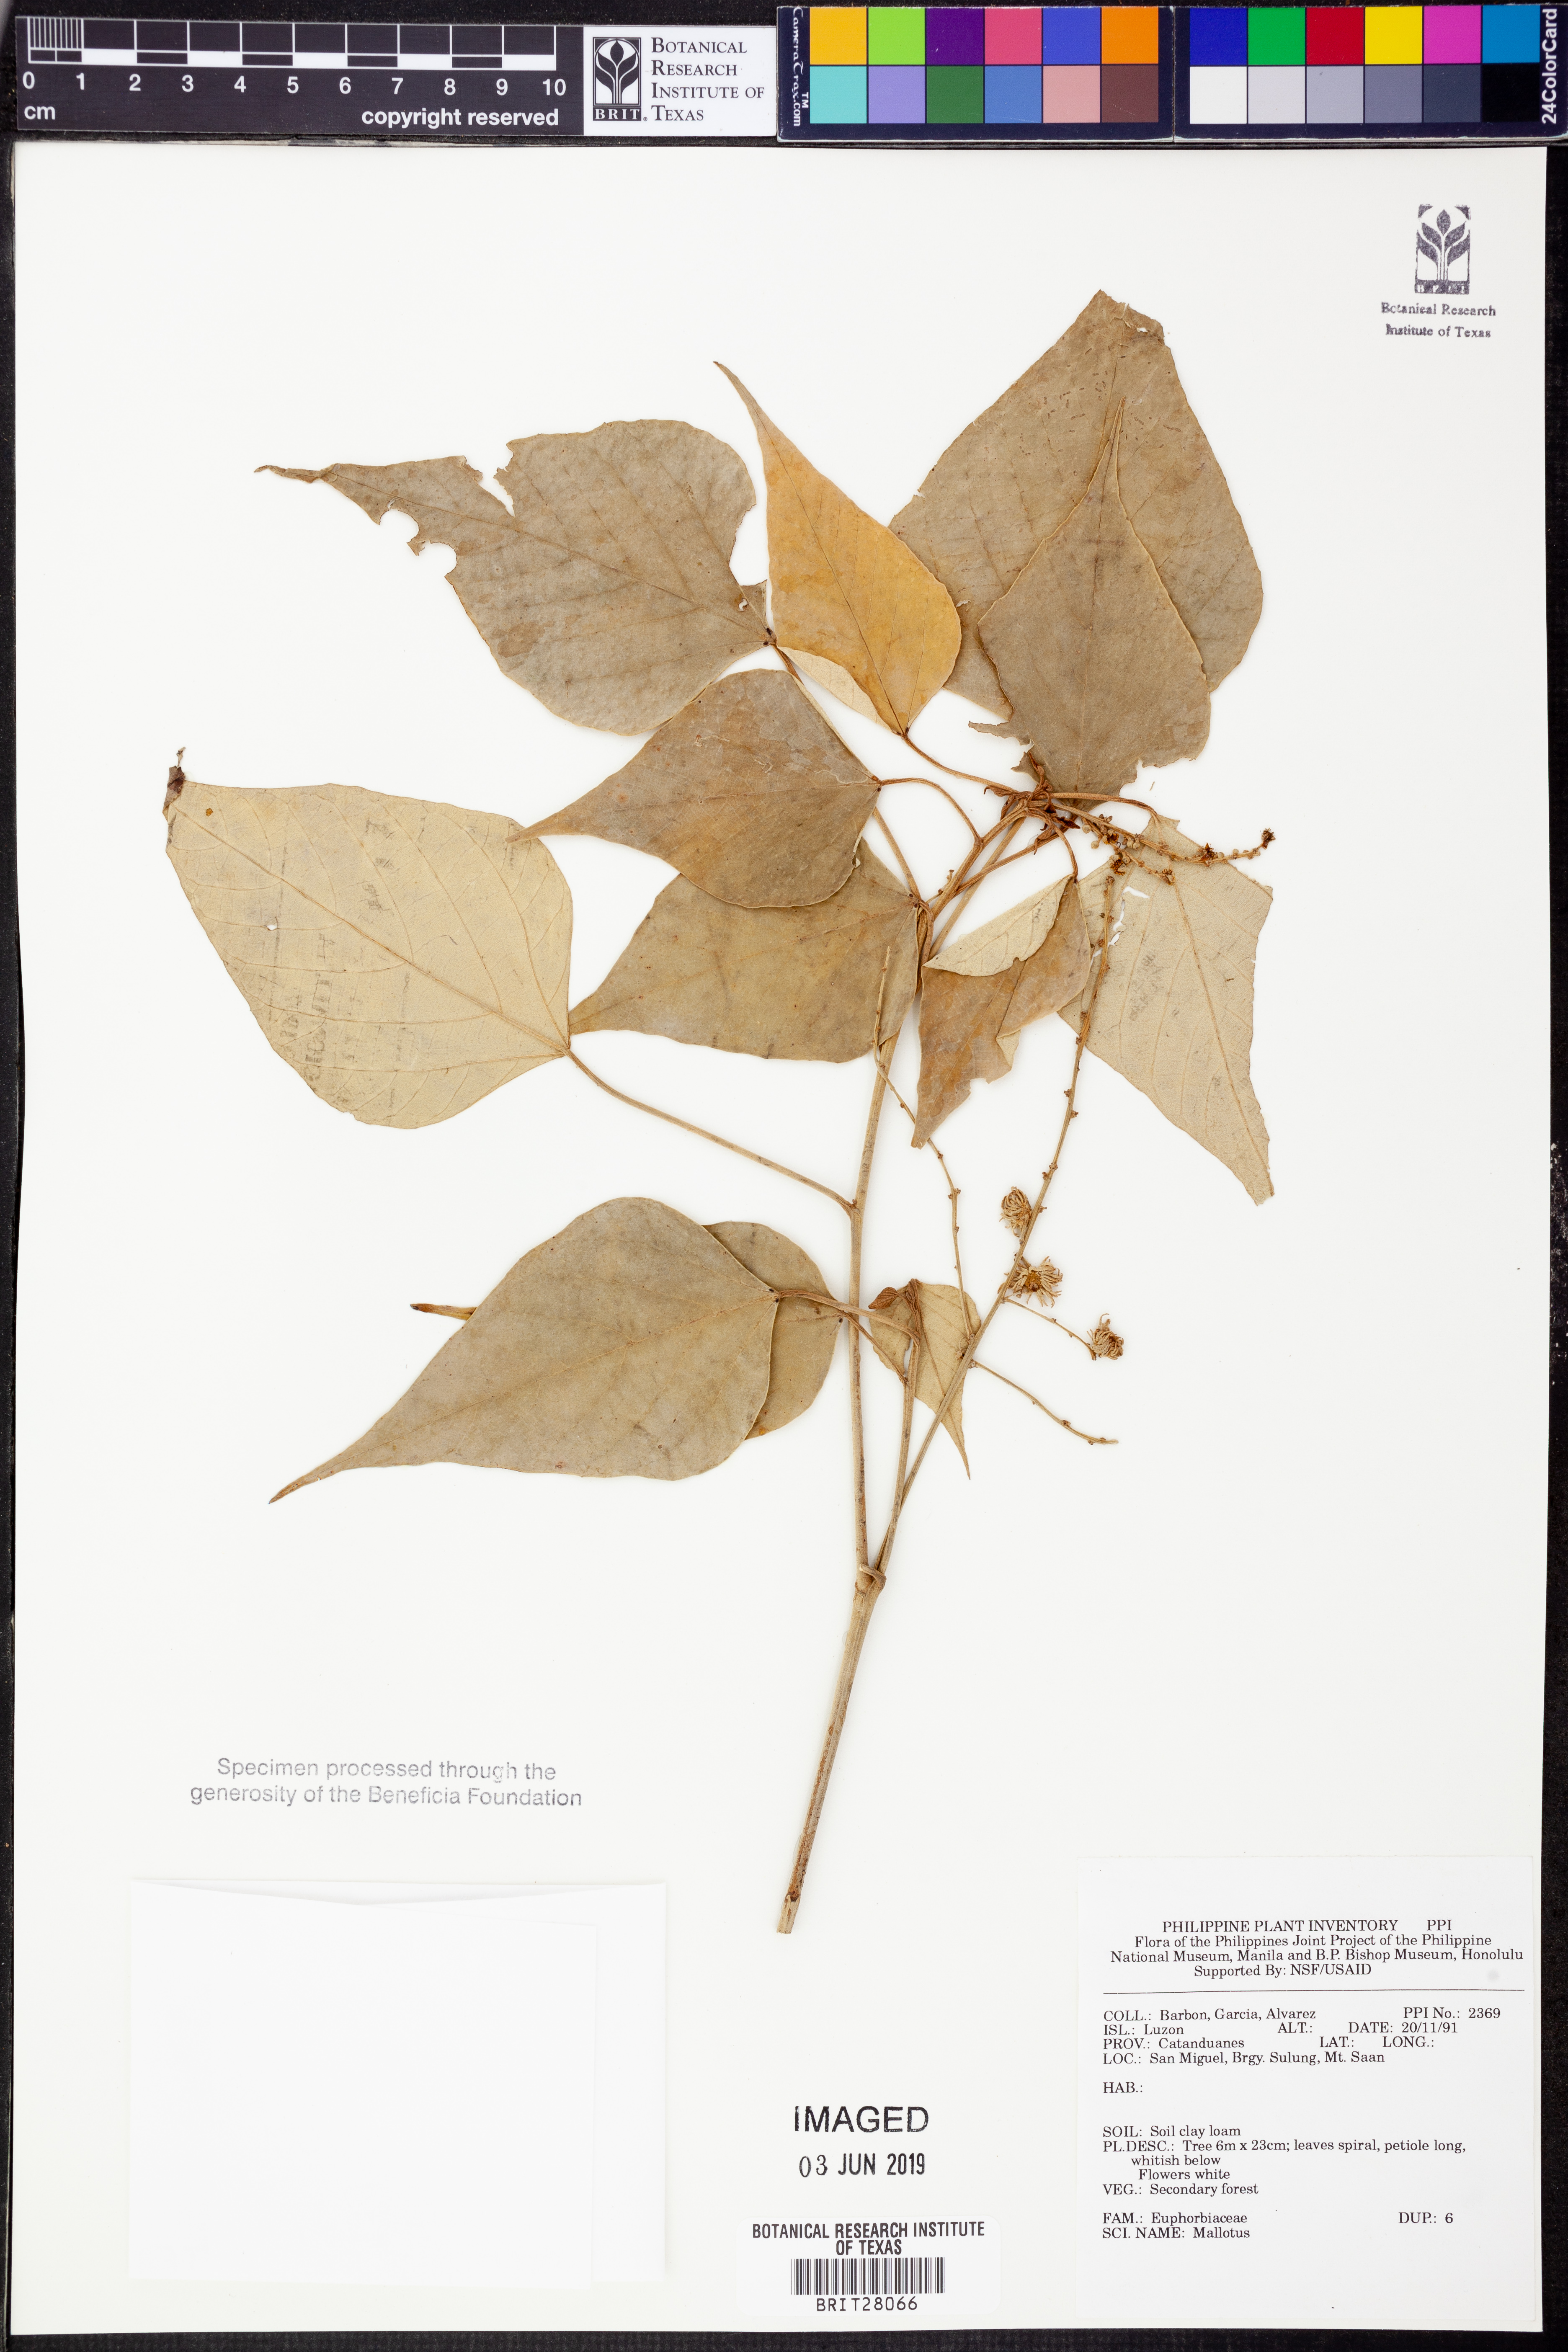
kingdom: Plantae
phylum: Tracheophyta
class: Magnoliopsida
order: Malpighiales
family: Euphorbiaceae
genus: Mallotus
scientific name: Mallotus
